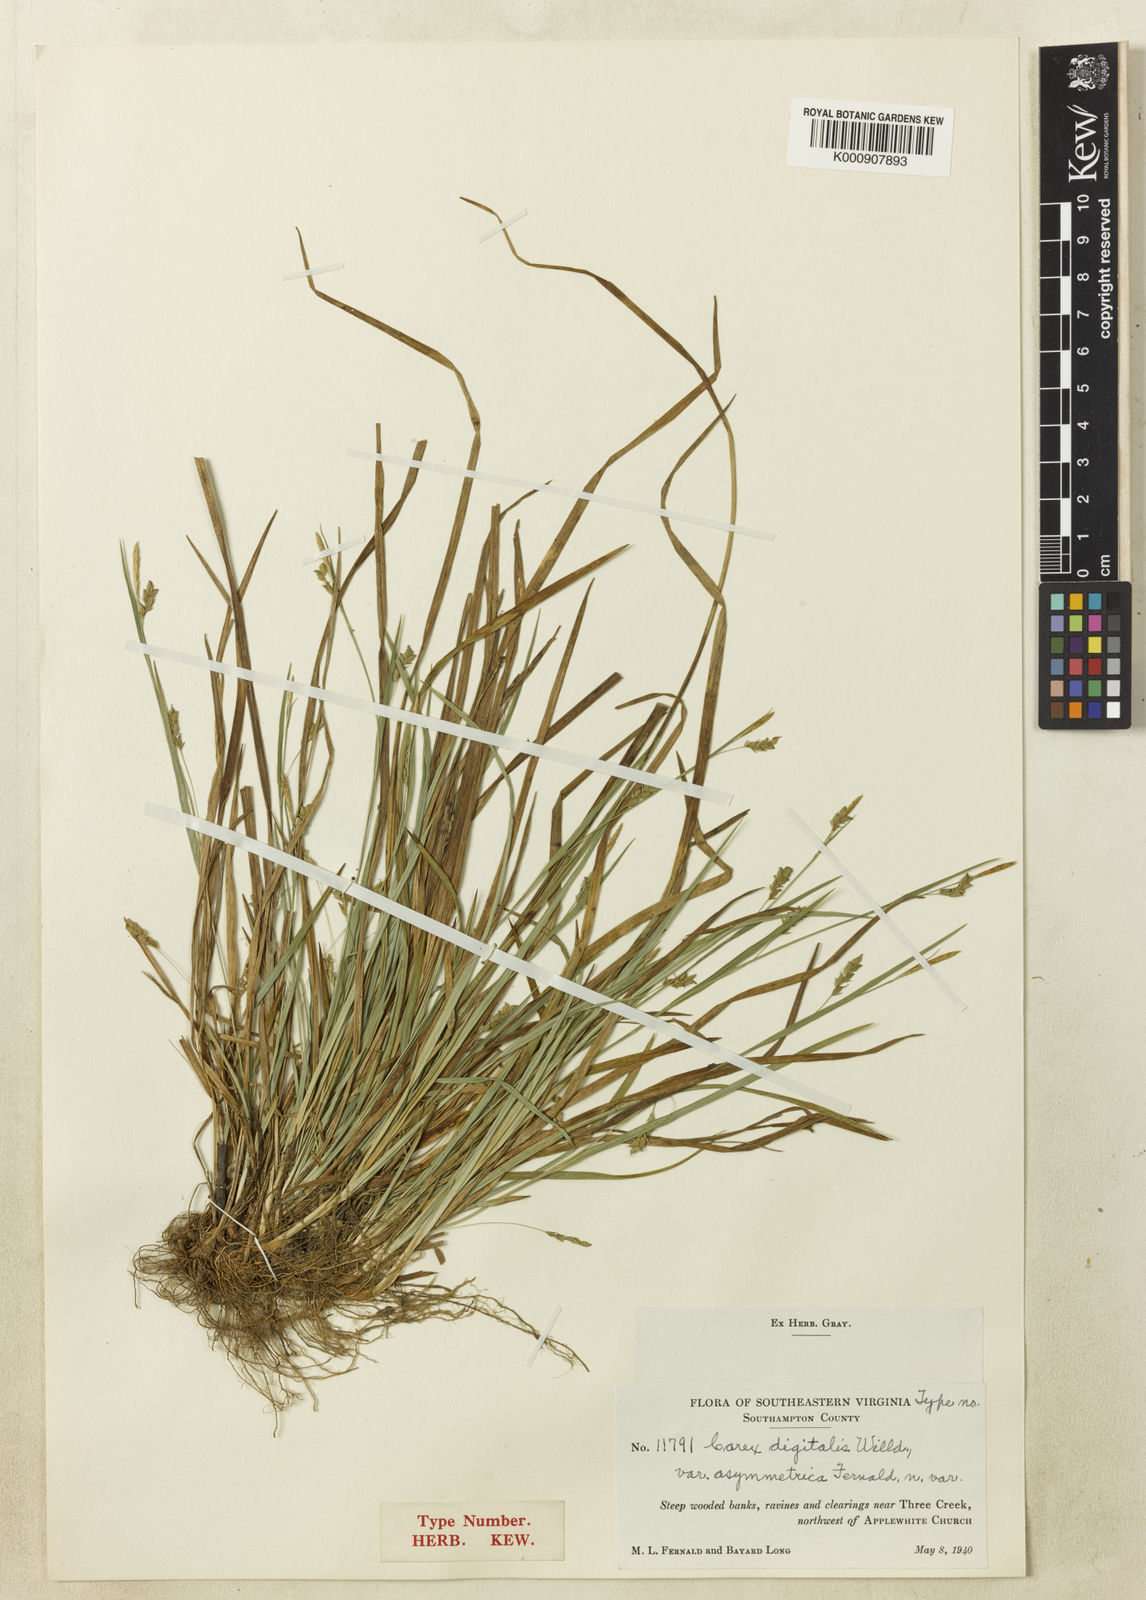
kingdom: Plantae
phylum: Tracheophyta
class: Liliopsida
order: Poales
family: Cyperaceae
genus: Carex
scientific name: Carex digitalis
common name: Slender wood sedge
